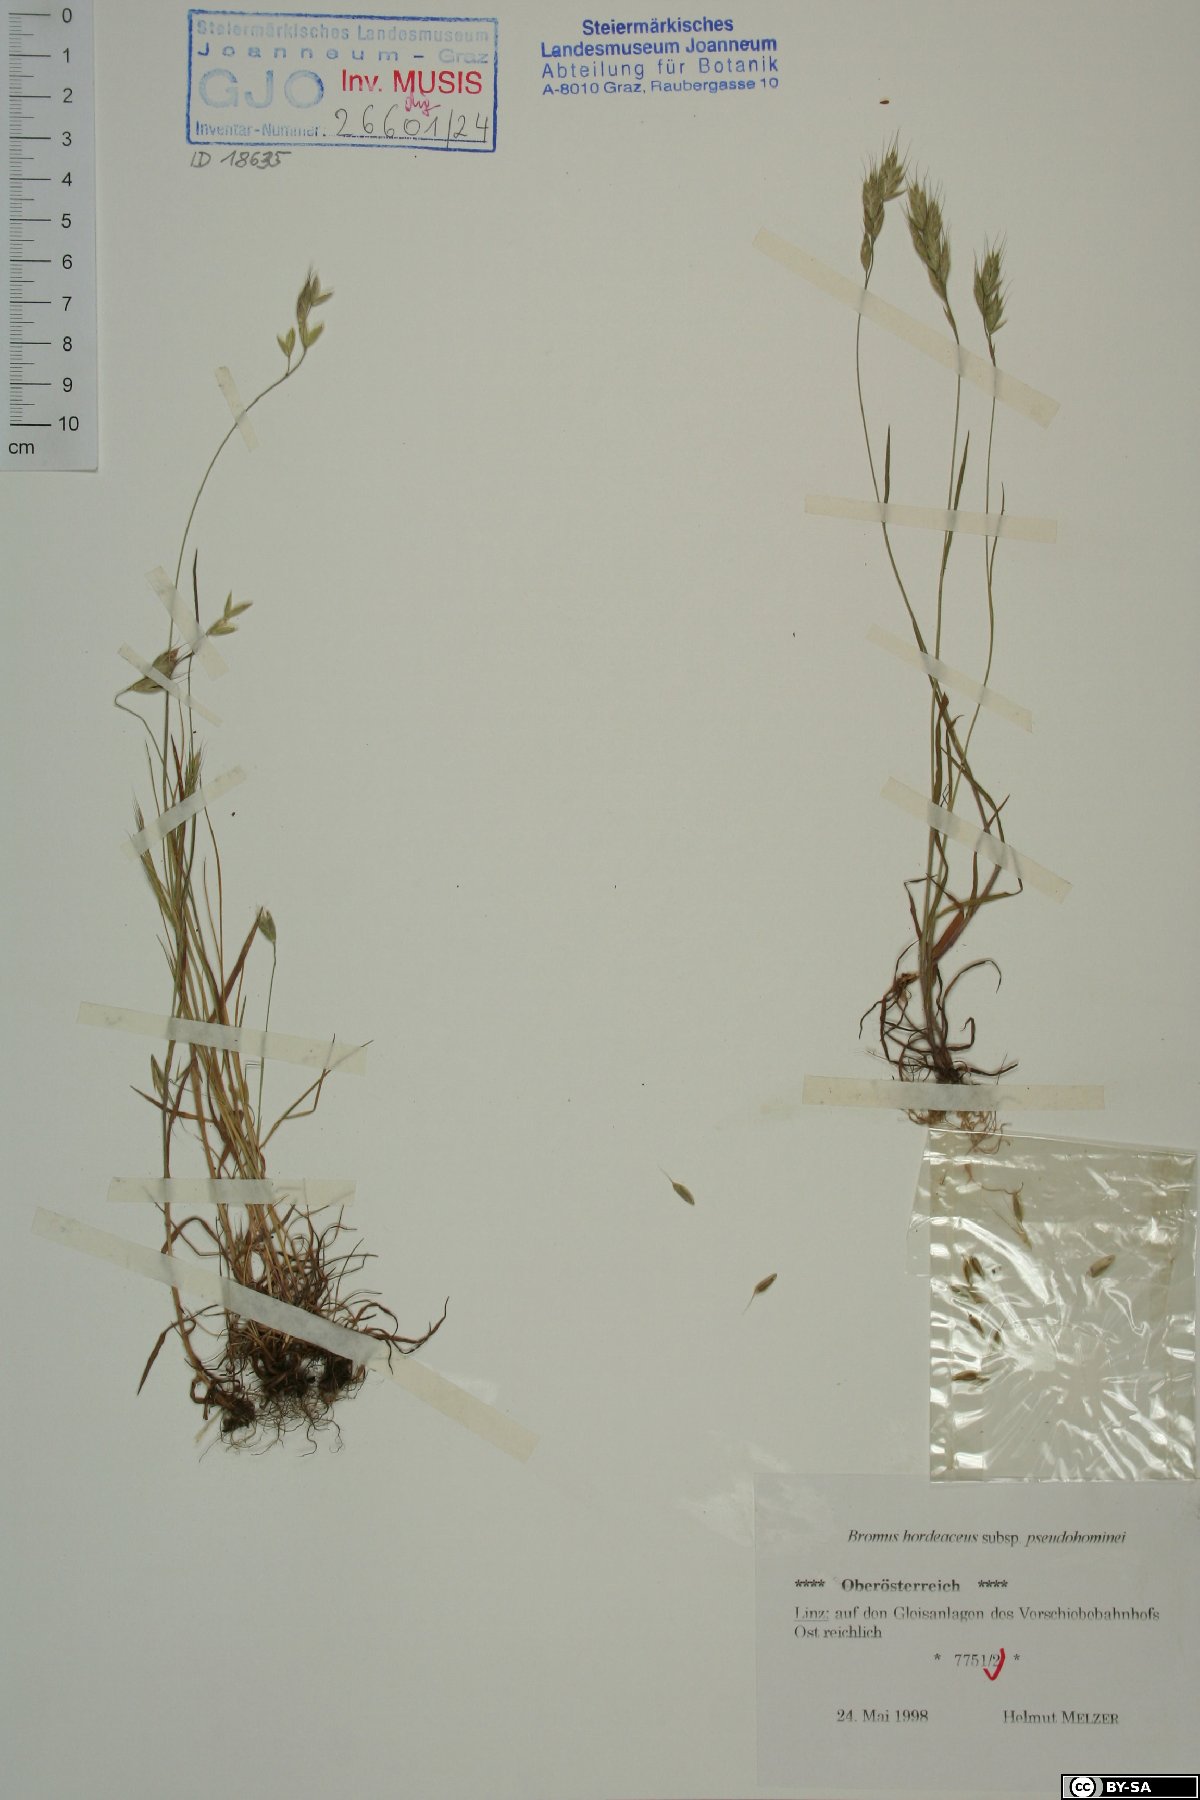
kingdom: Plantae
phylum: Tracheophyta
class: Liliopsida
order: Poales
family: Poaceae
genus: Bromus
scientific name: Bromus ferronii
